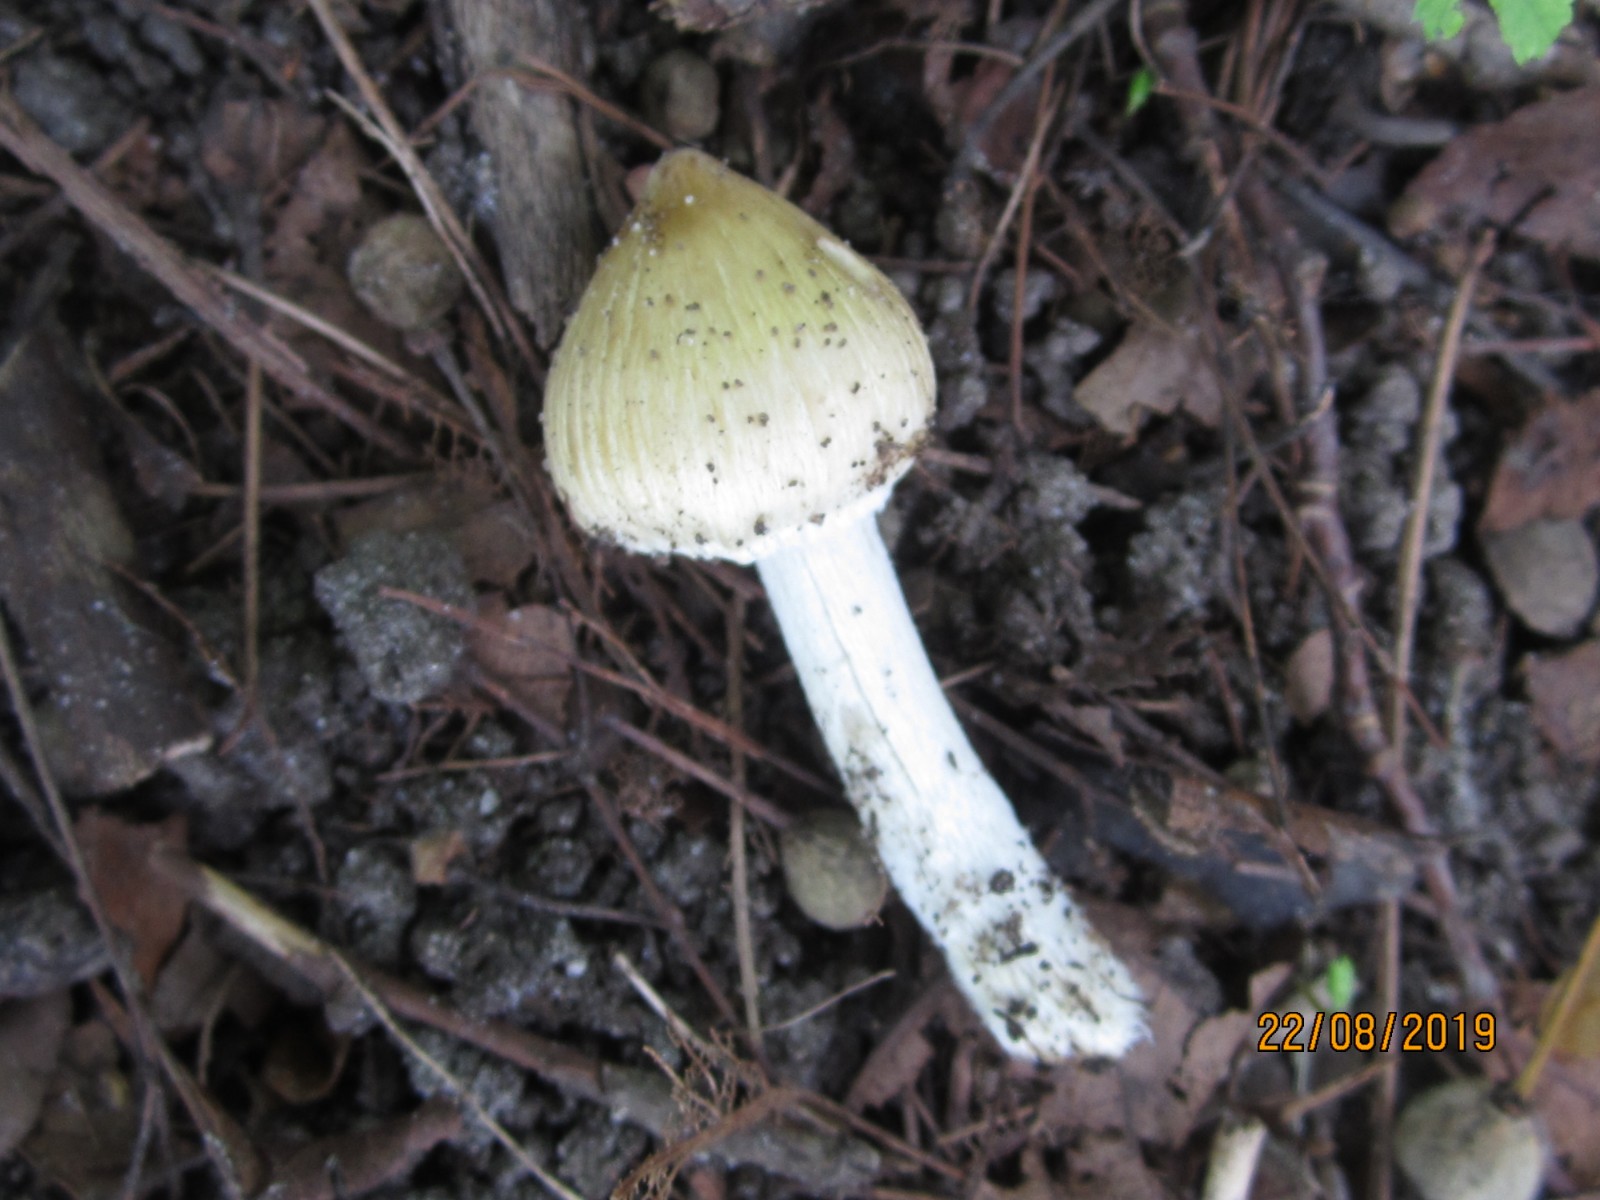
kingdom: Fungi
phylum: Basidiomycota
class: Agaricomycetes
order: Agaricales
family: Inocybaceae
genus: Pseudosperma
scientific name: Pseudosperma
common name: trævlhat
